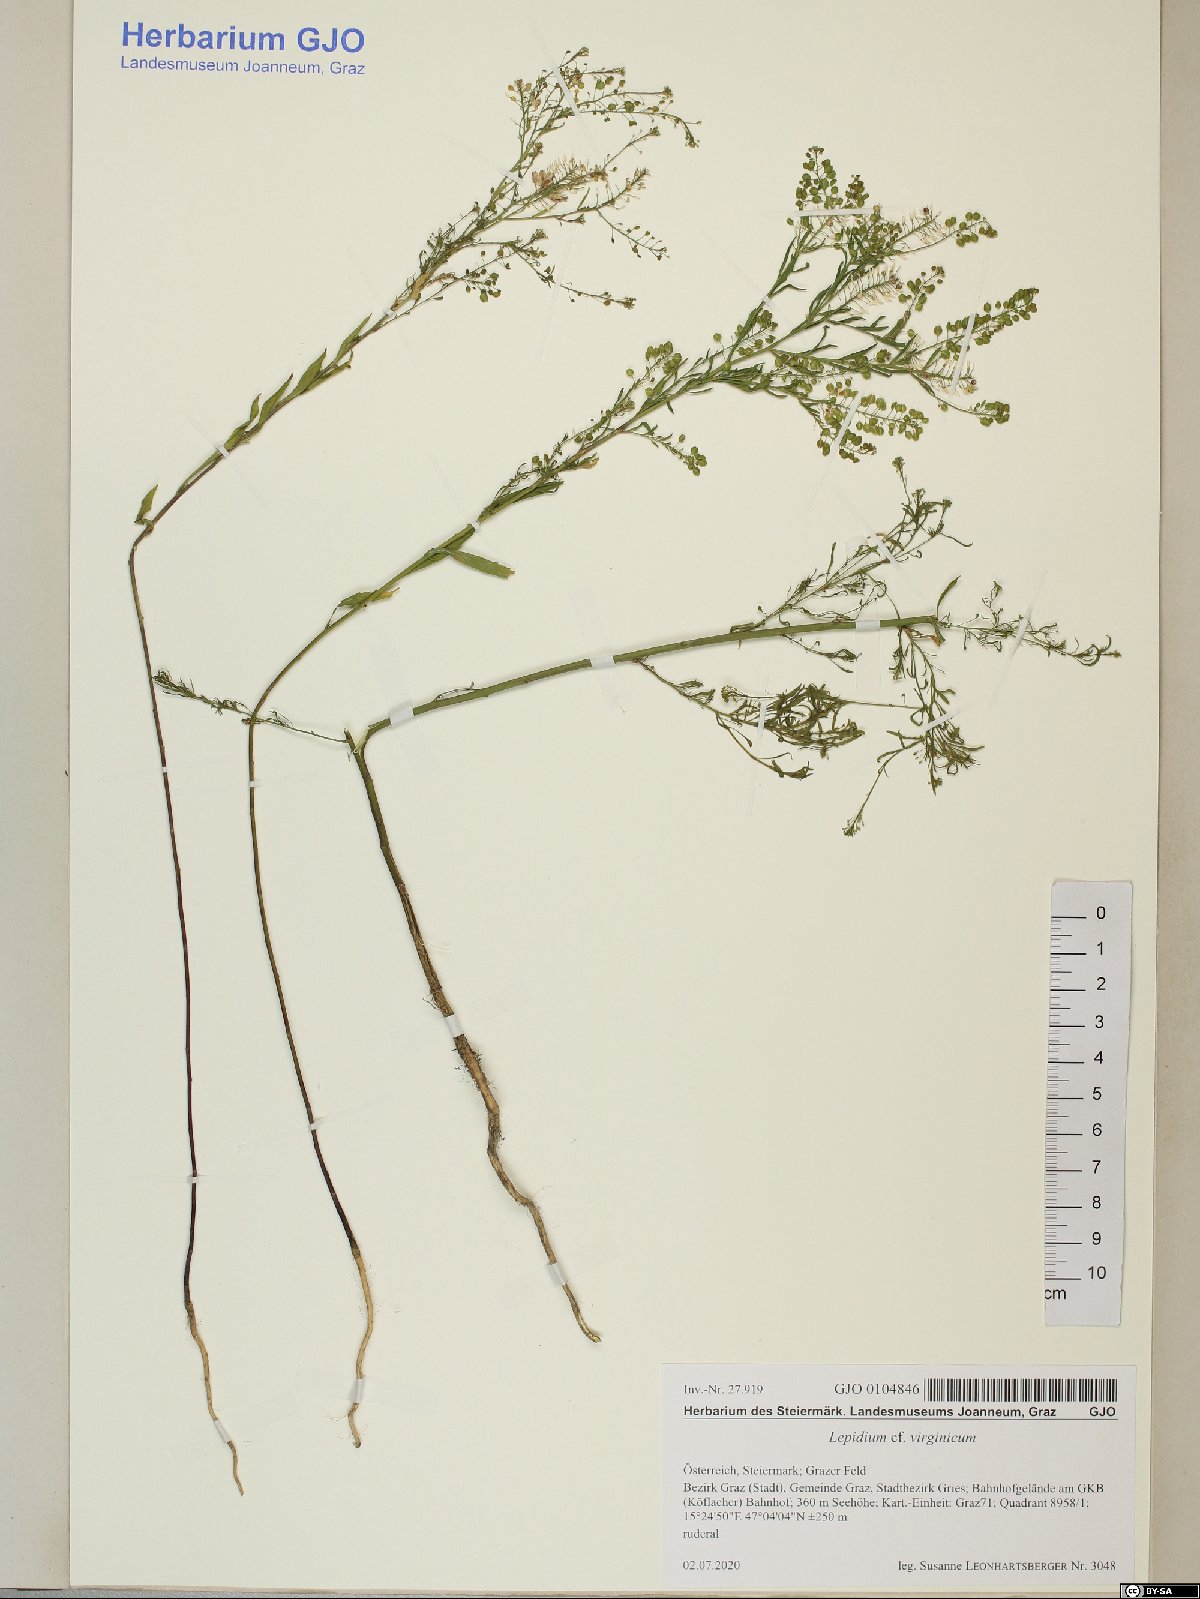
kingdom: Plantae
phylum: Tracheophyta
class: Magnoliopsida
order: Brassicales
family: Brassicaceae
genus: Lepidium
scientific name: Lepidium virginicum
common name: Least pepperwort
